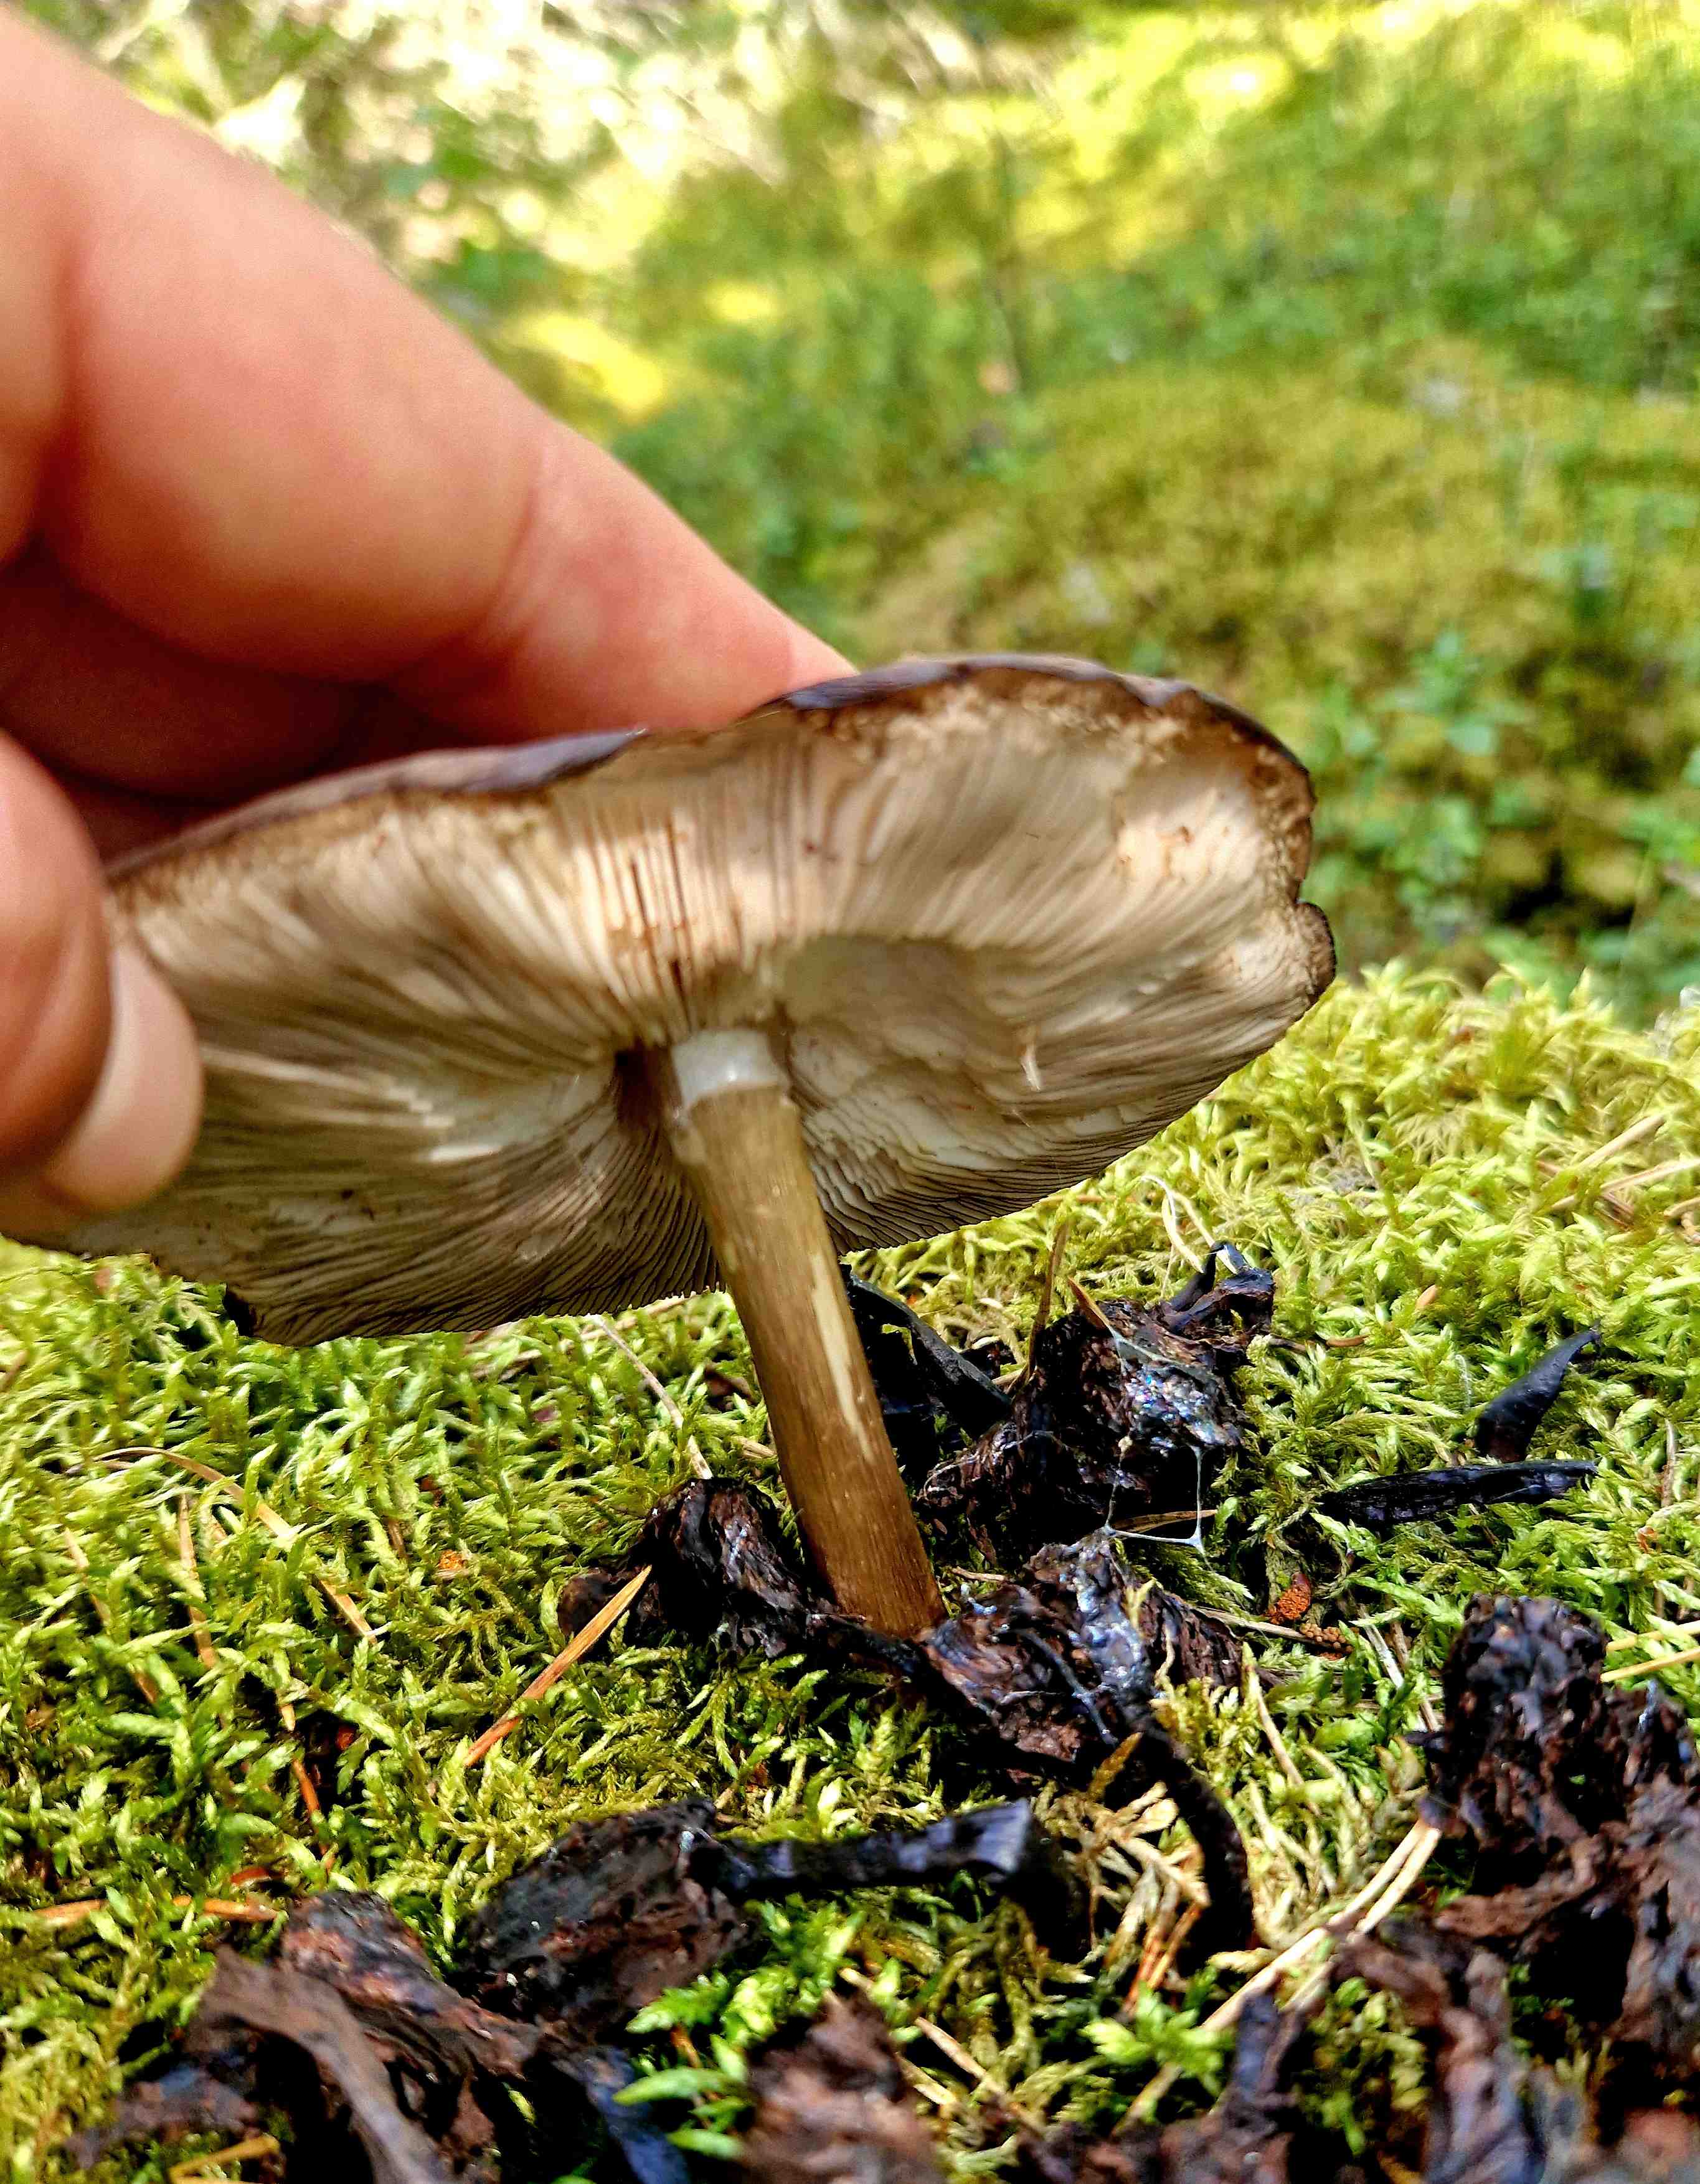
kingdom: Fungi
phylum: Basidiomycota
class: Agaricomycetes
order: Agaricales
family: Pluteaceae
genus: Pluteus
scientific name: Pluteus atromarginatus
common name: sortrandet skærmhat
